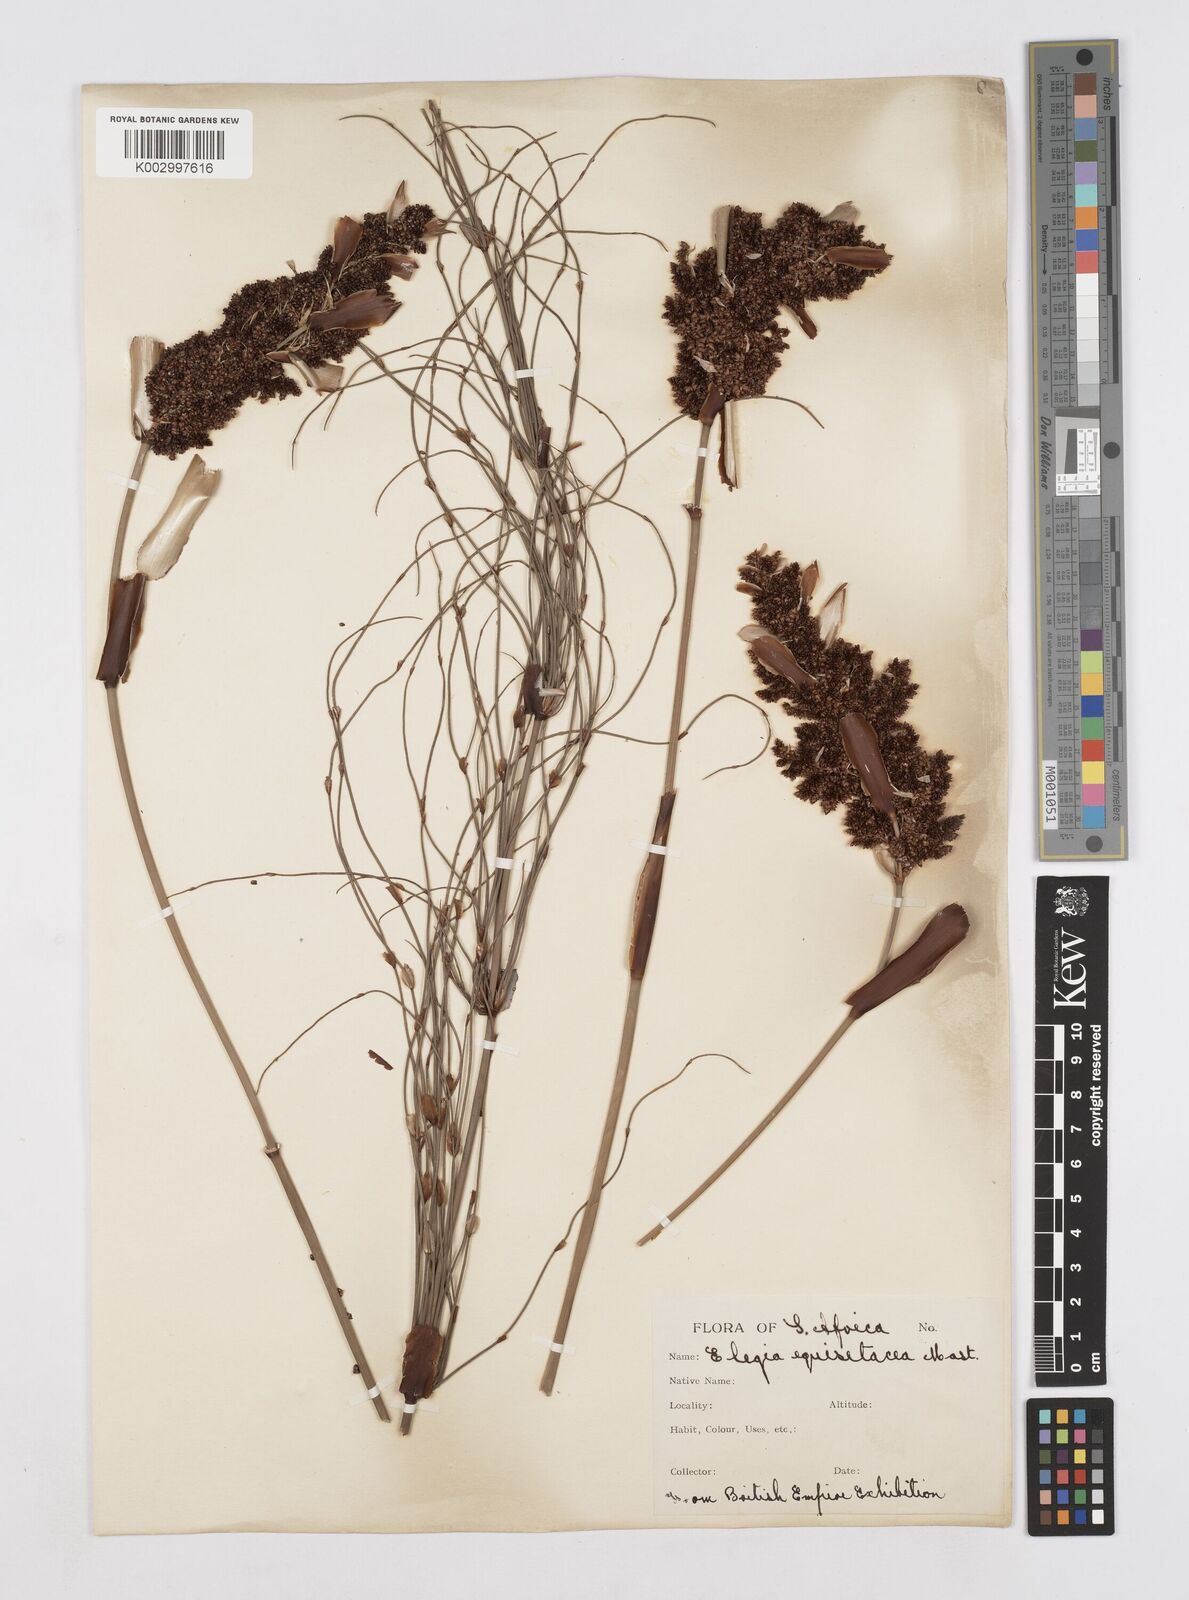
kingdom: Plantae
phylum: Tracheophyta
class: Liliopsida
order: Poales
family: Restionaceae
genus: Elegia
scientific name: Elegia equisetacea
